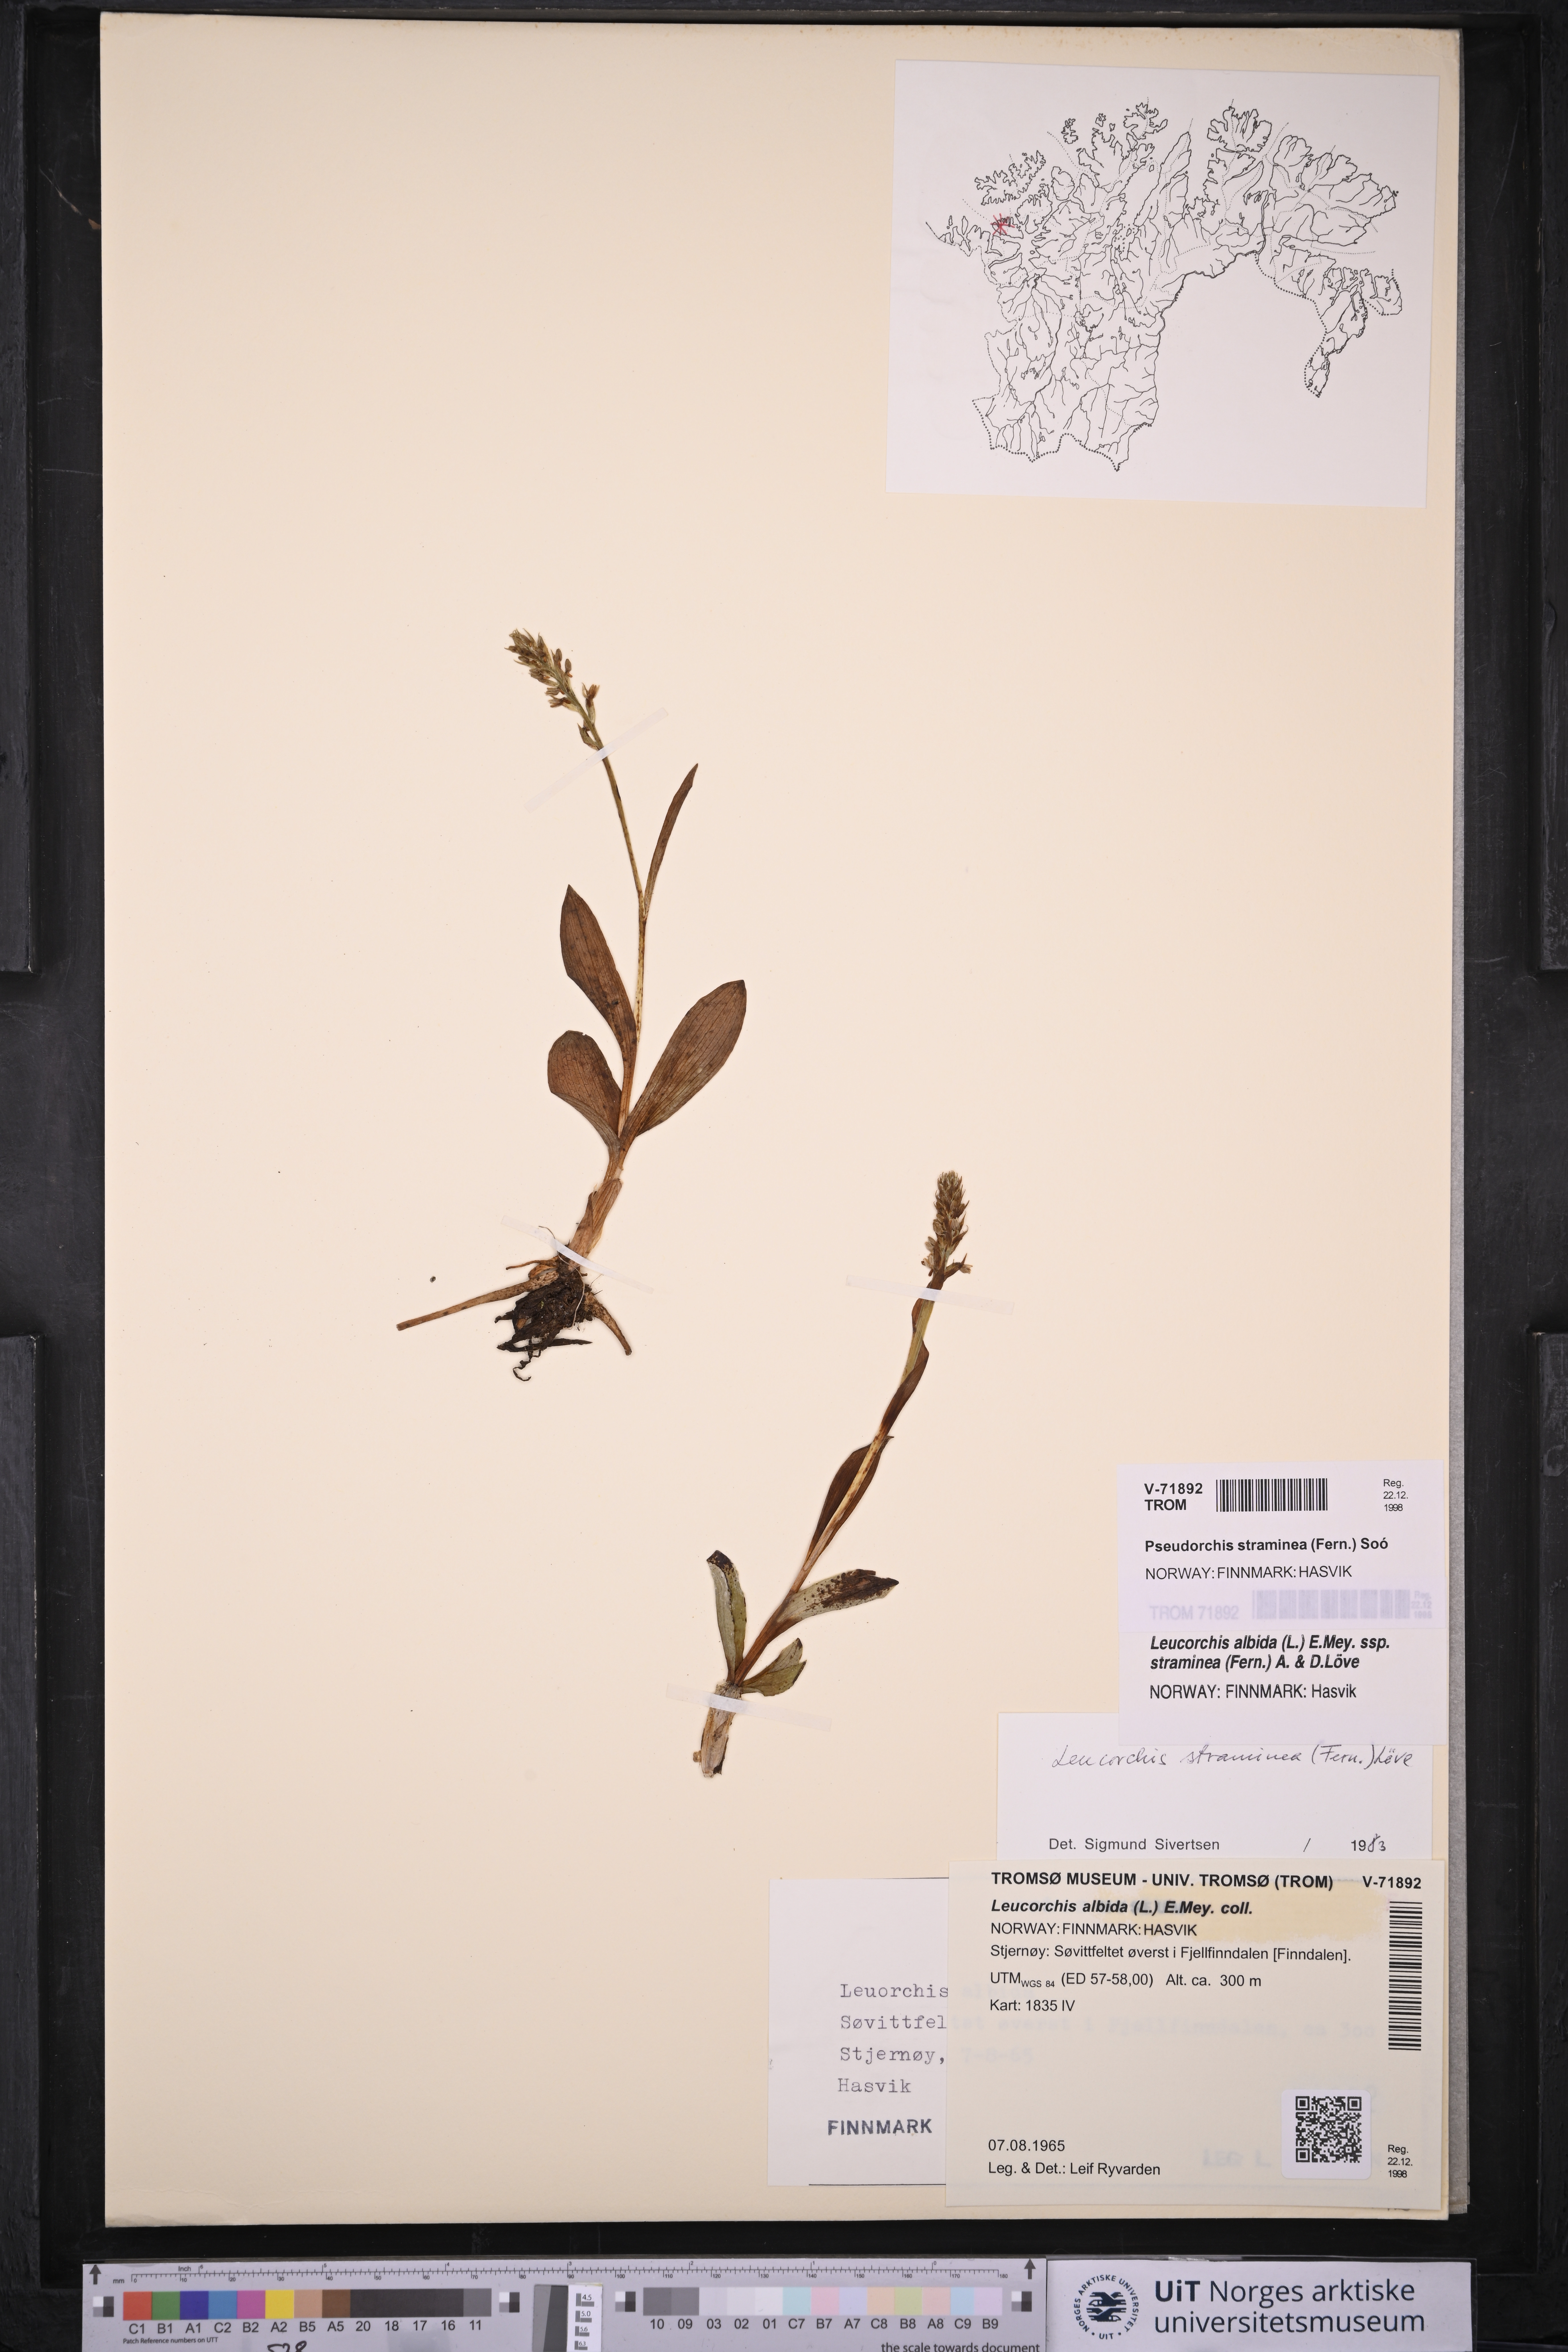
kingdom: Plantae
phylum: Tracheophyta
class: Liliopsida
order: Asparagales
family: Orchidaceae
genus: Pseudorchis
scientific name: Pseudorchis straminea
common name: Vanilla-scented bog orchid
